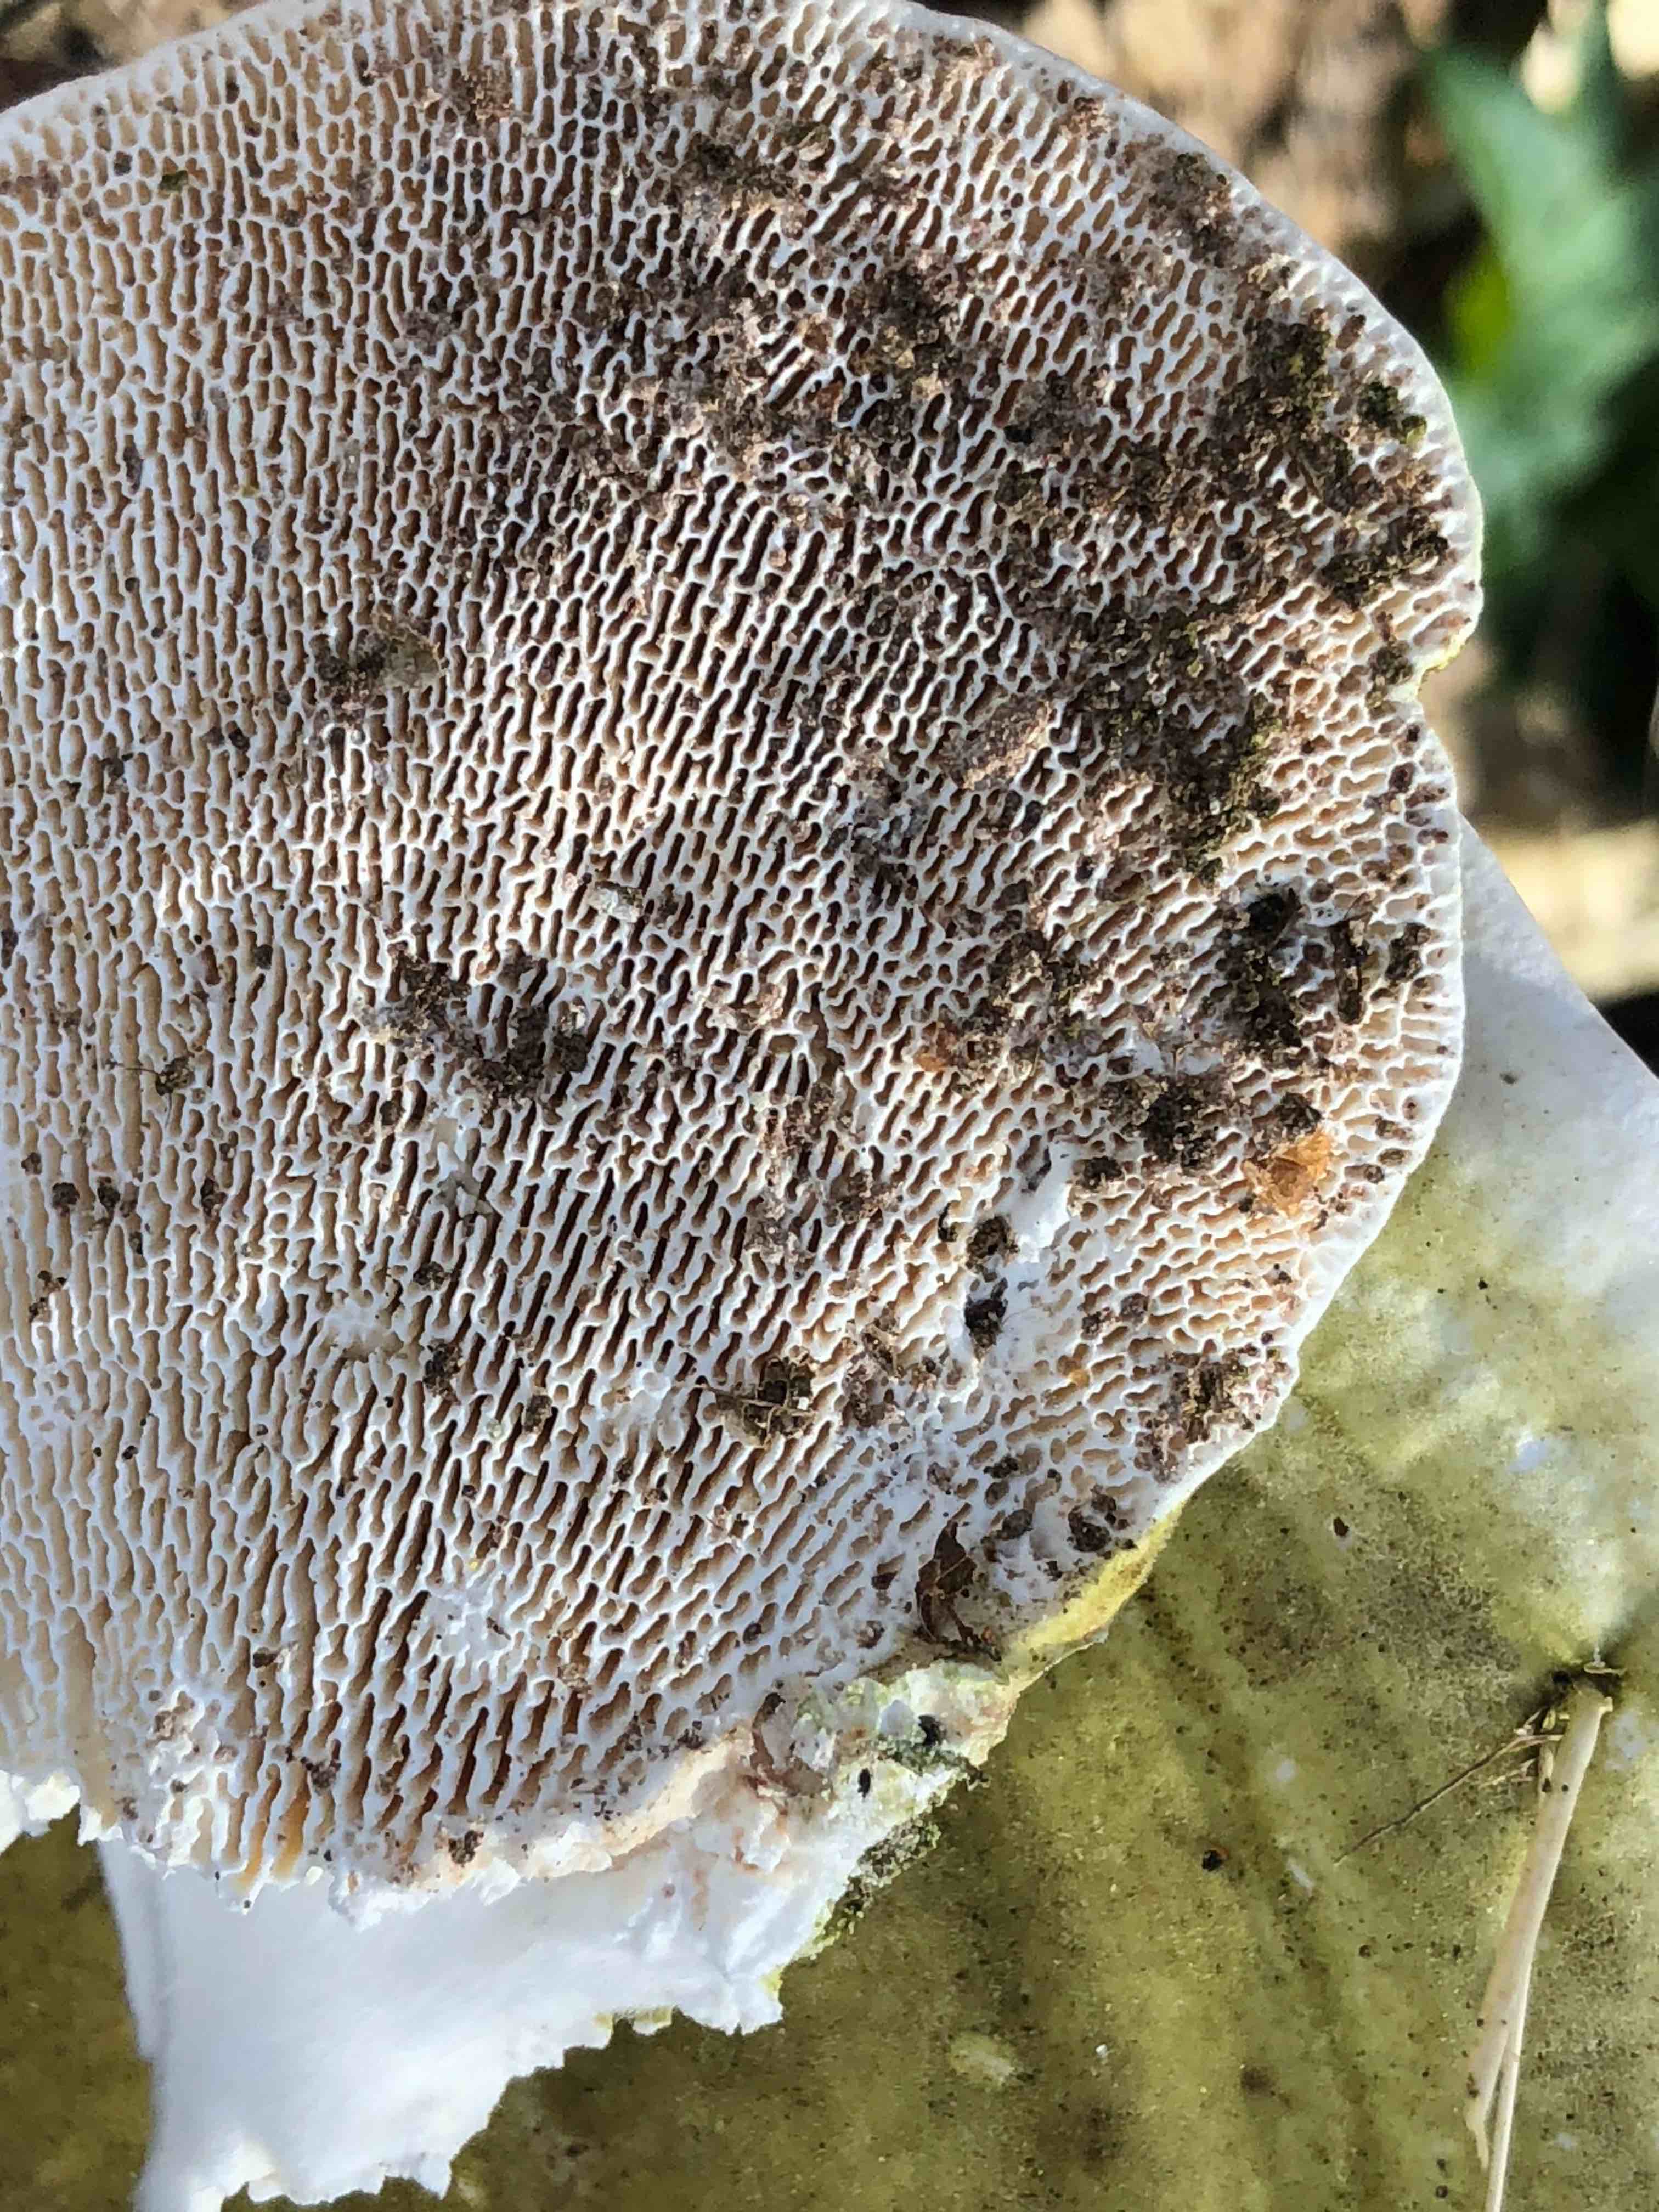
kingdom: Fungi
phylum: Basidiomycota
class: Agaricomycetes
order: Polyporales
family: Polyporaceae
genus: Trametes
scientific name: Trametes gibbosa
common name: puklet læderporesvamp
